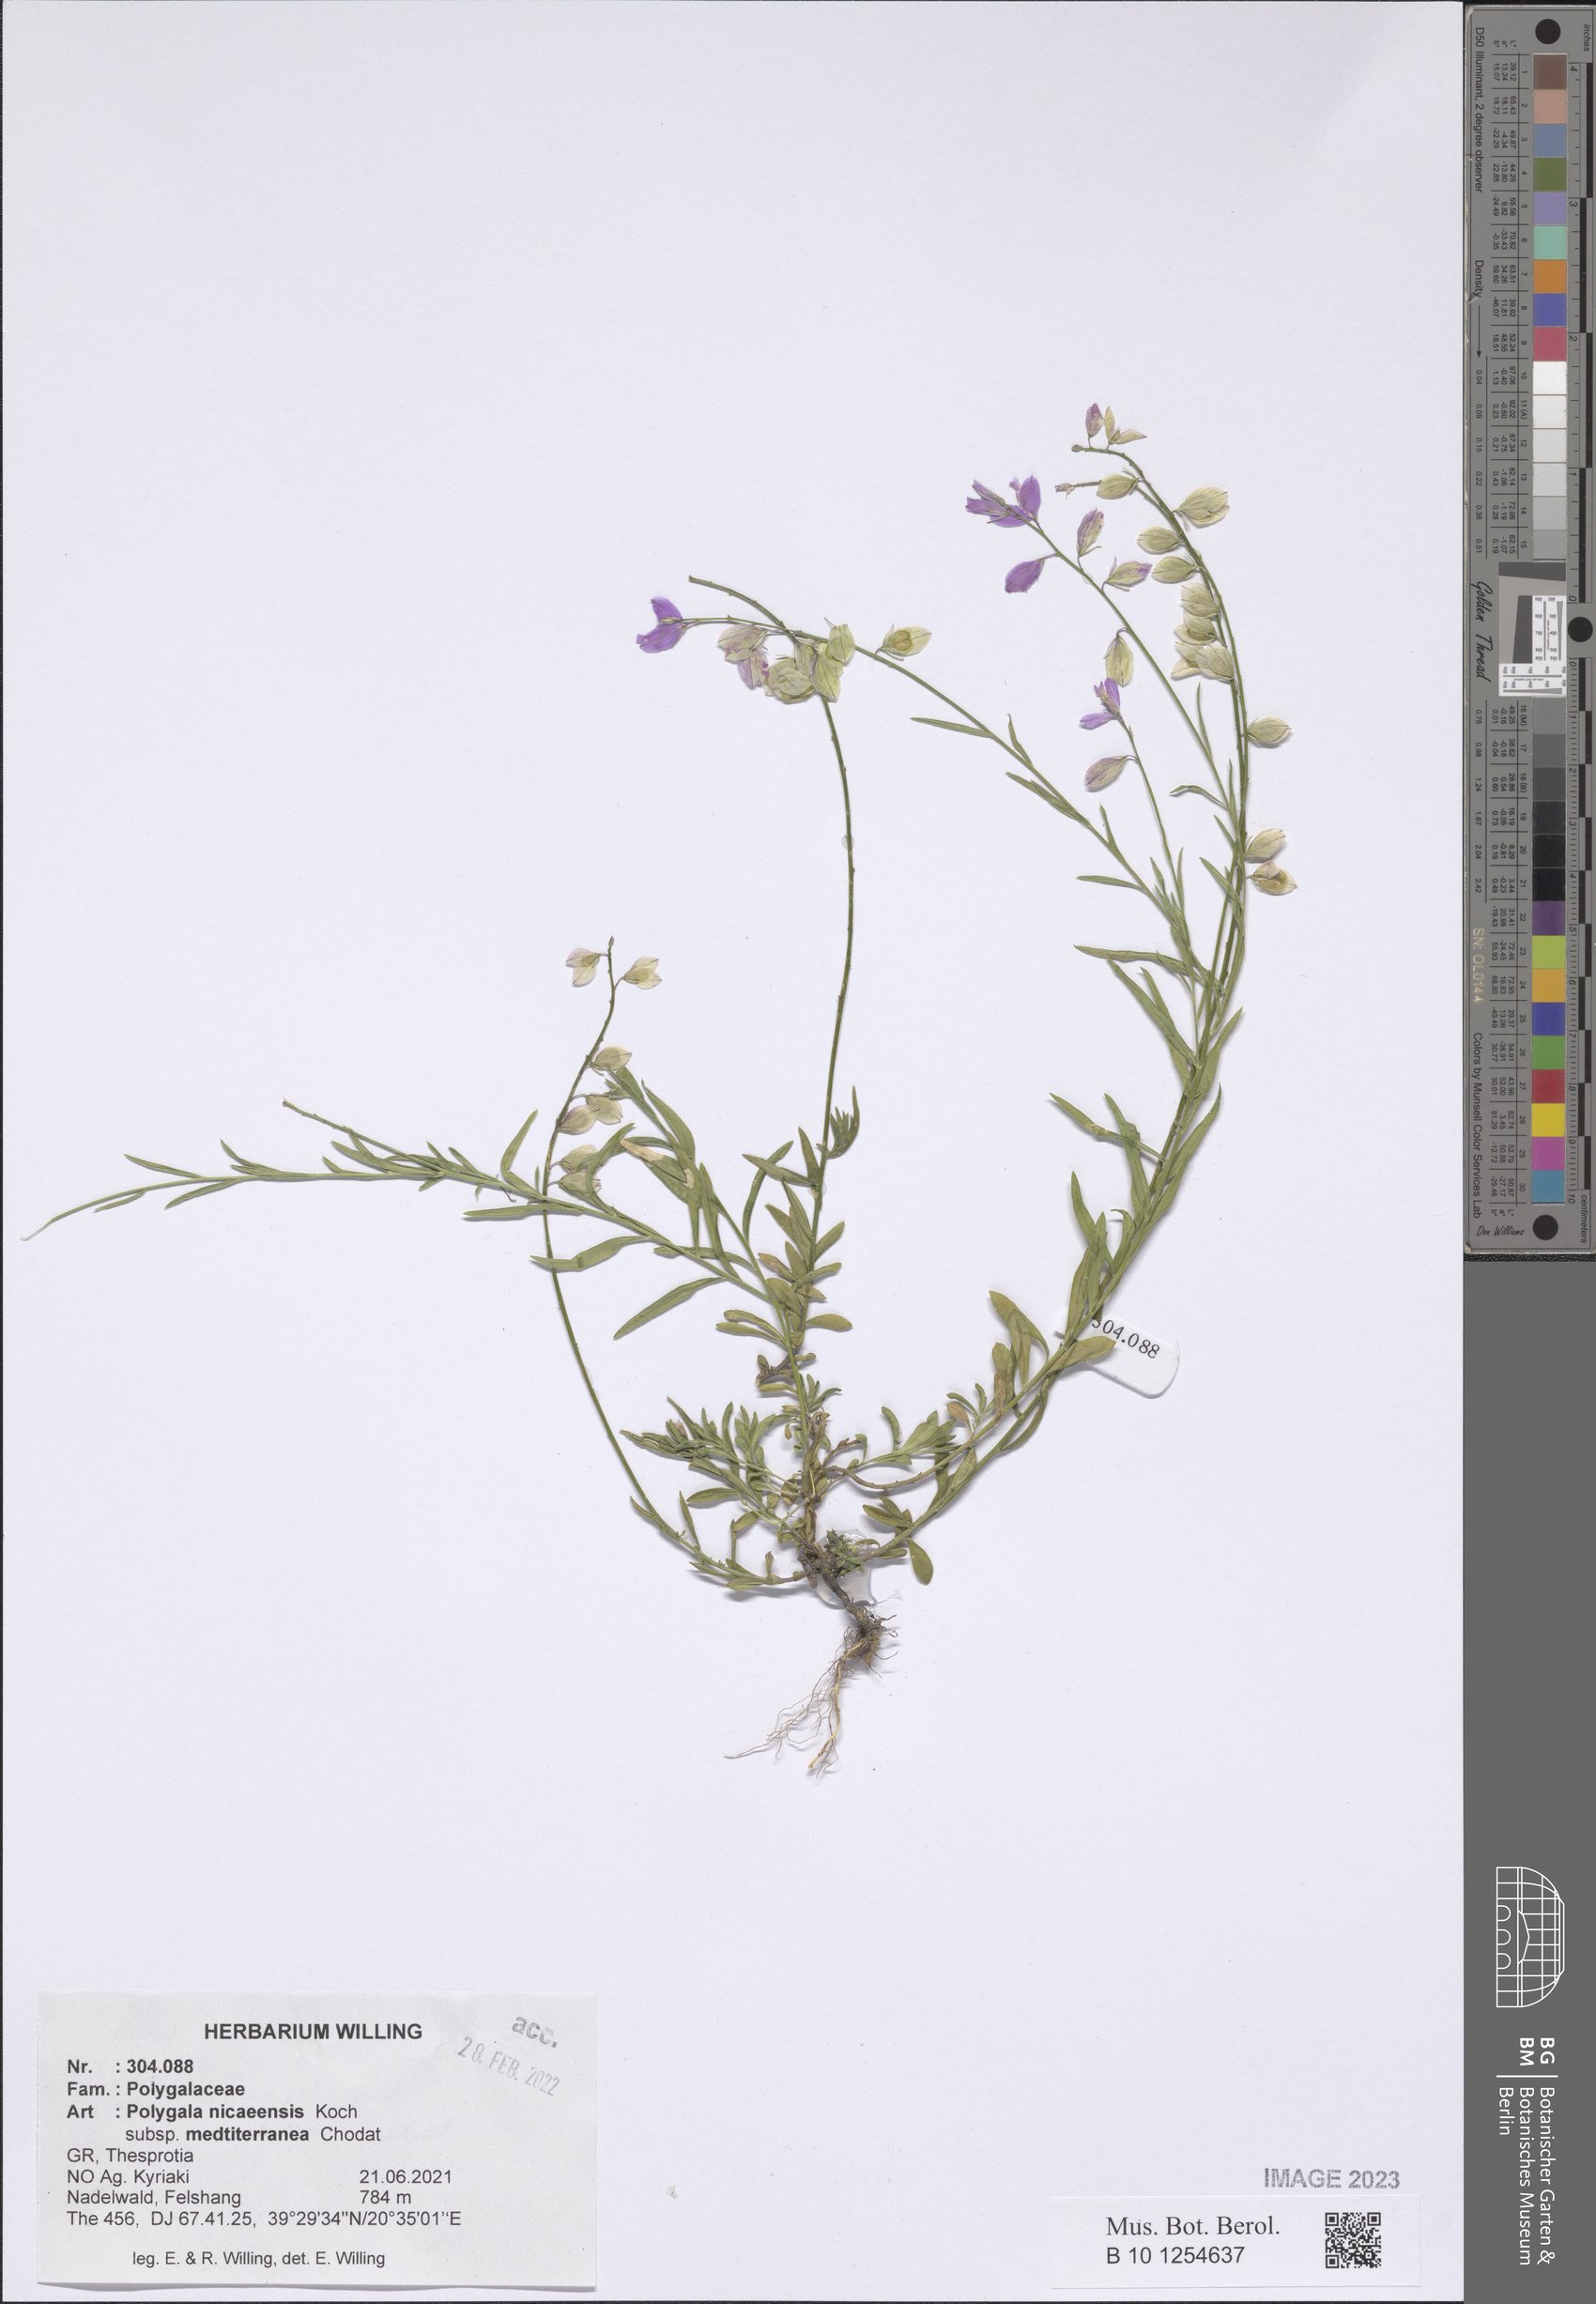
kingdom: Plantae
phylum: Tracheophyta
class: Magnoliopsida
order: Fabales
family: Polygalaceae
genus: Polygala
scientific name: Polygala nicaeensis
